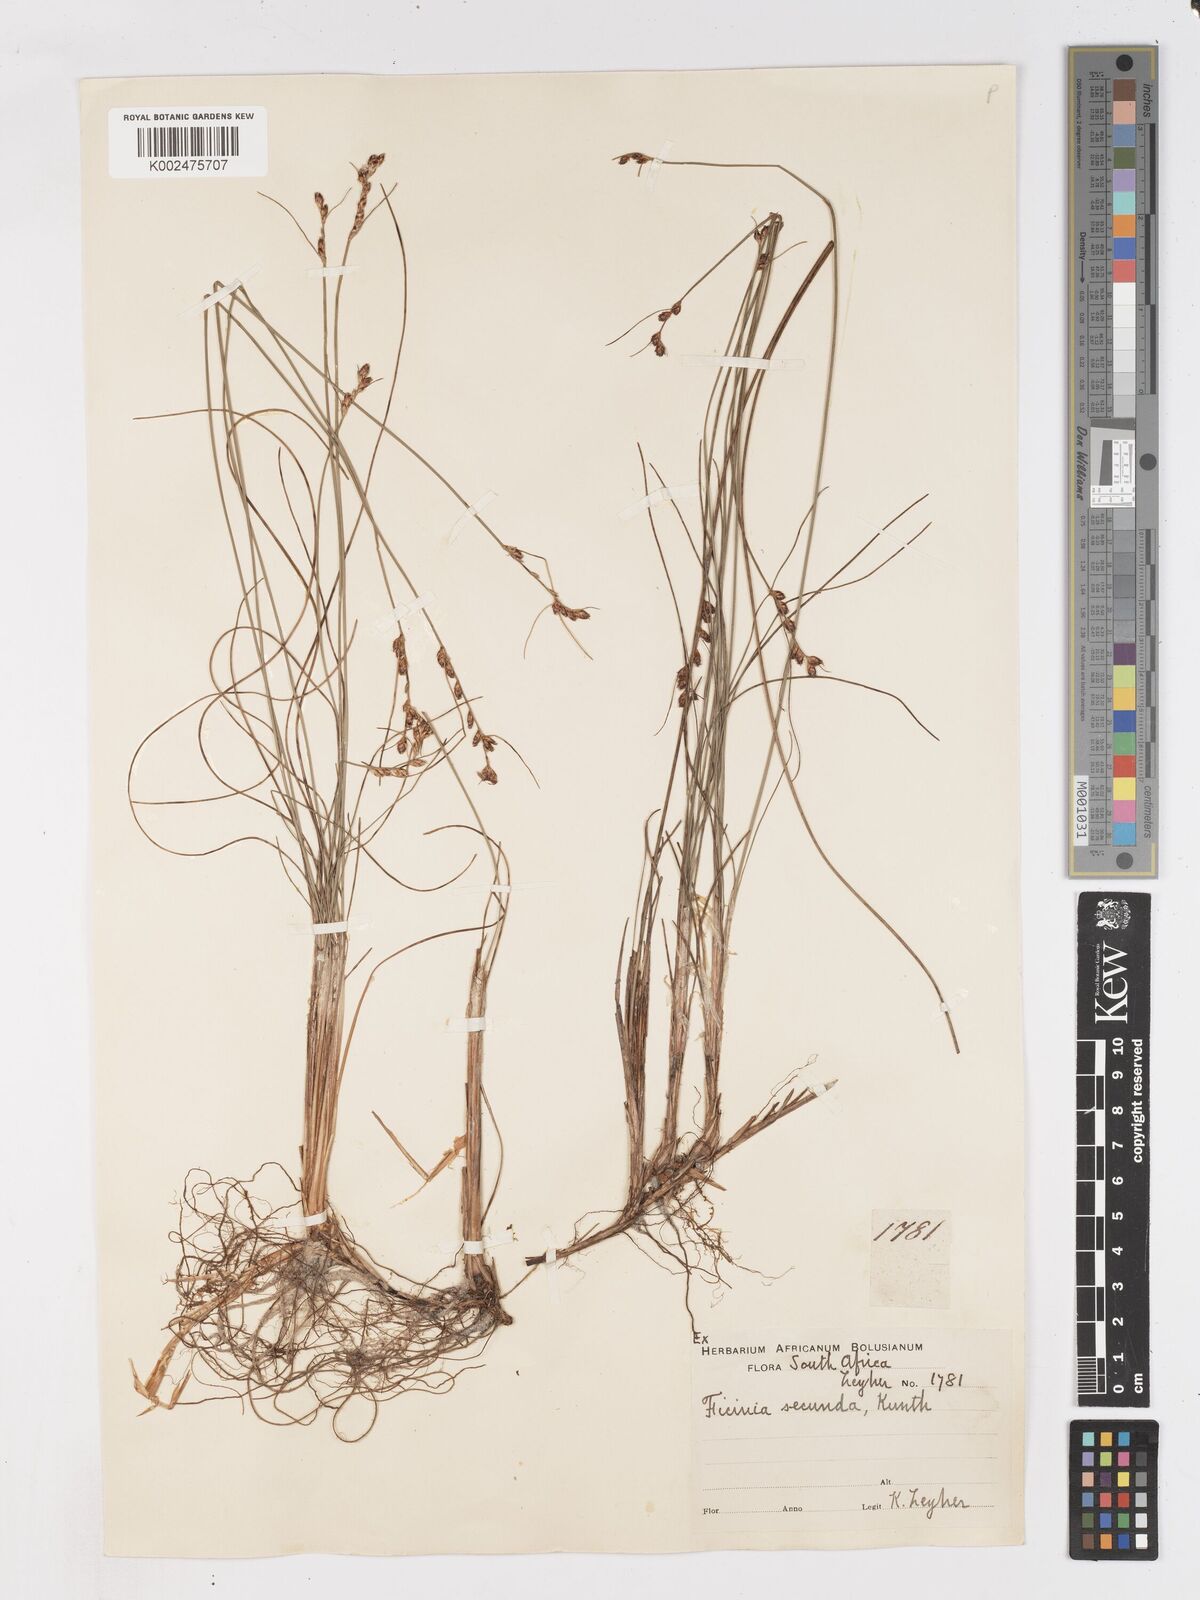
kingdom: Plantae
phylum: Tracheophyta
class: Liliopsida
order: Poales
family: Cyperaceae
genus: Ficinia
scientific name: Ficinia secunda
